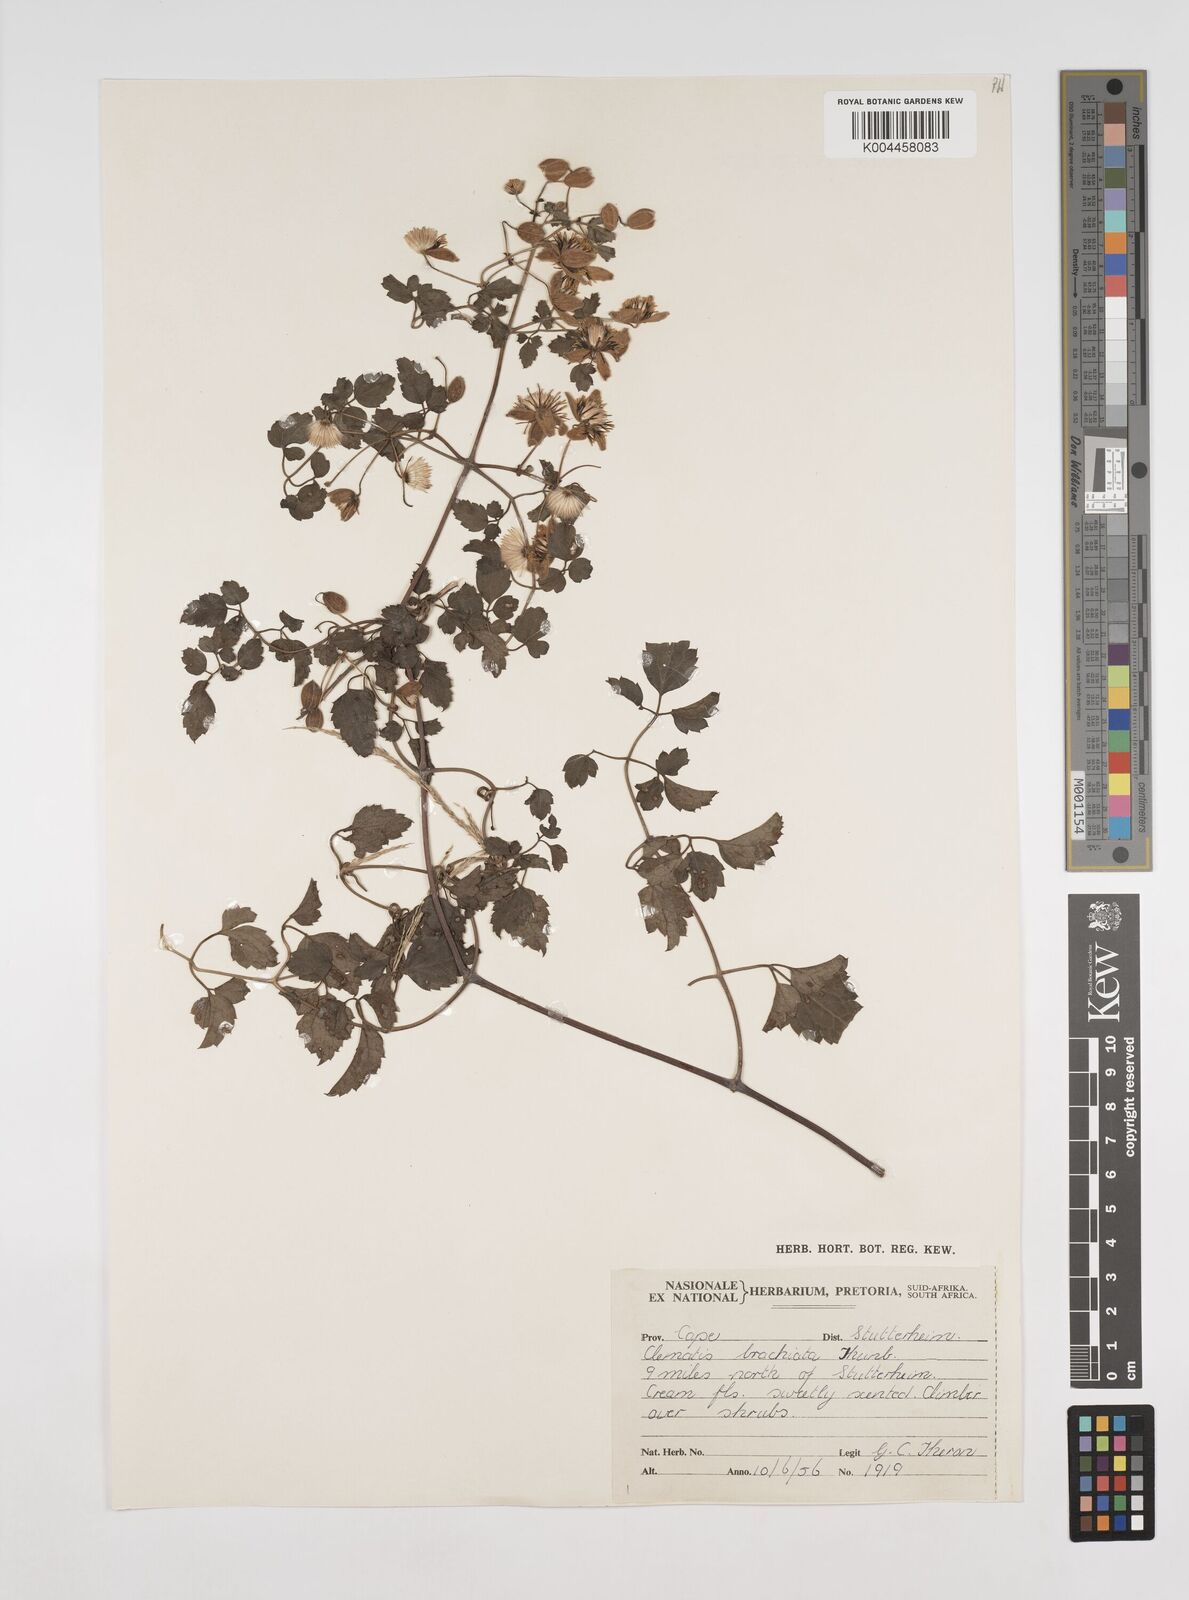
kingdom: Plantae
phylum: Tracheophyta
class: Magnoliopsida
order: Ranunculales
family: Ranunculaceae
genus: Clematis
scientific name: Clematis brachiata
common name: Traveler's-joy
